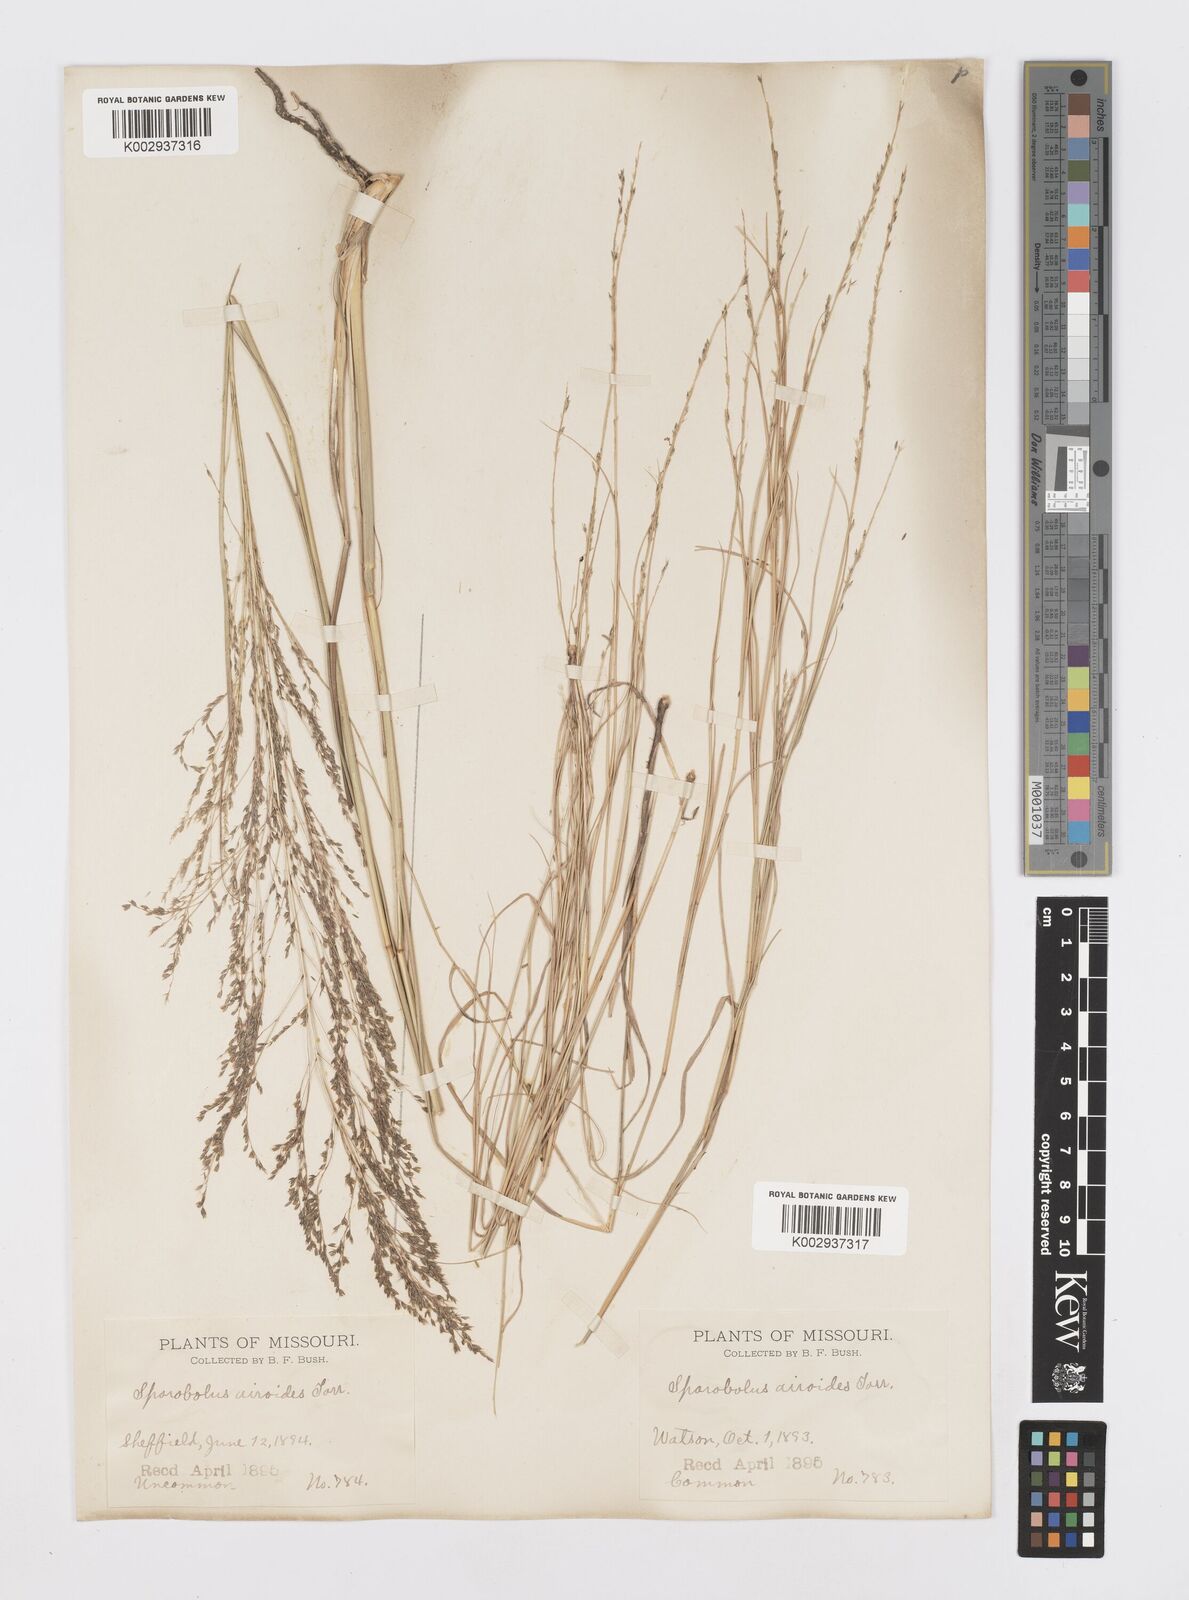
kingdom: Plantae
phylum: Tracheophyta
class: Liliopsida
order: Poales
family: Poaceae
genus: Sporobolus
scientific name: Sporobolus airoides
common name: Alkali sacaton
